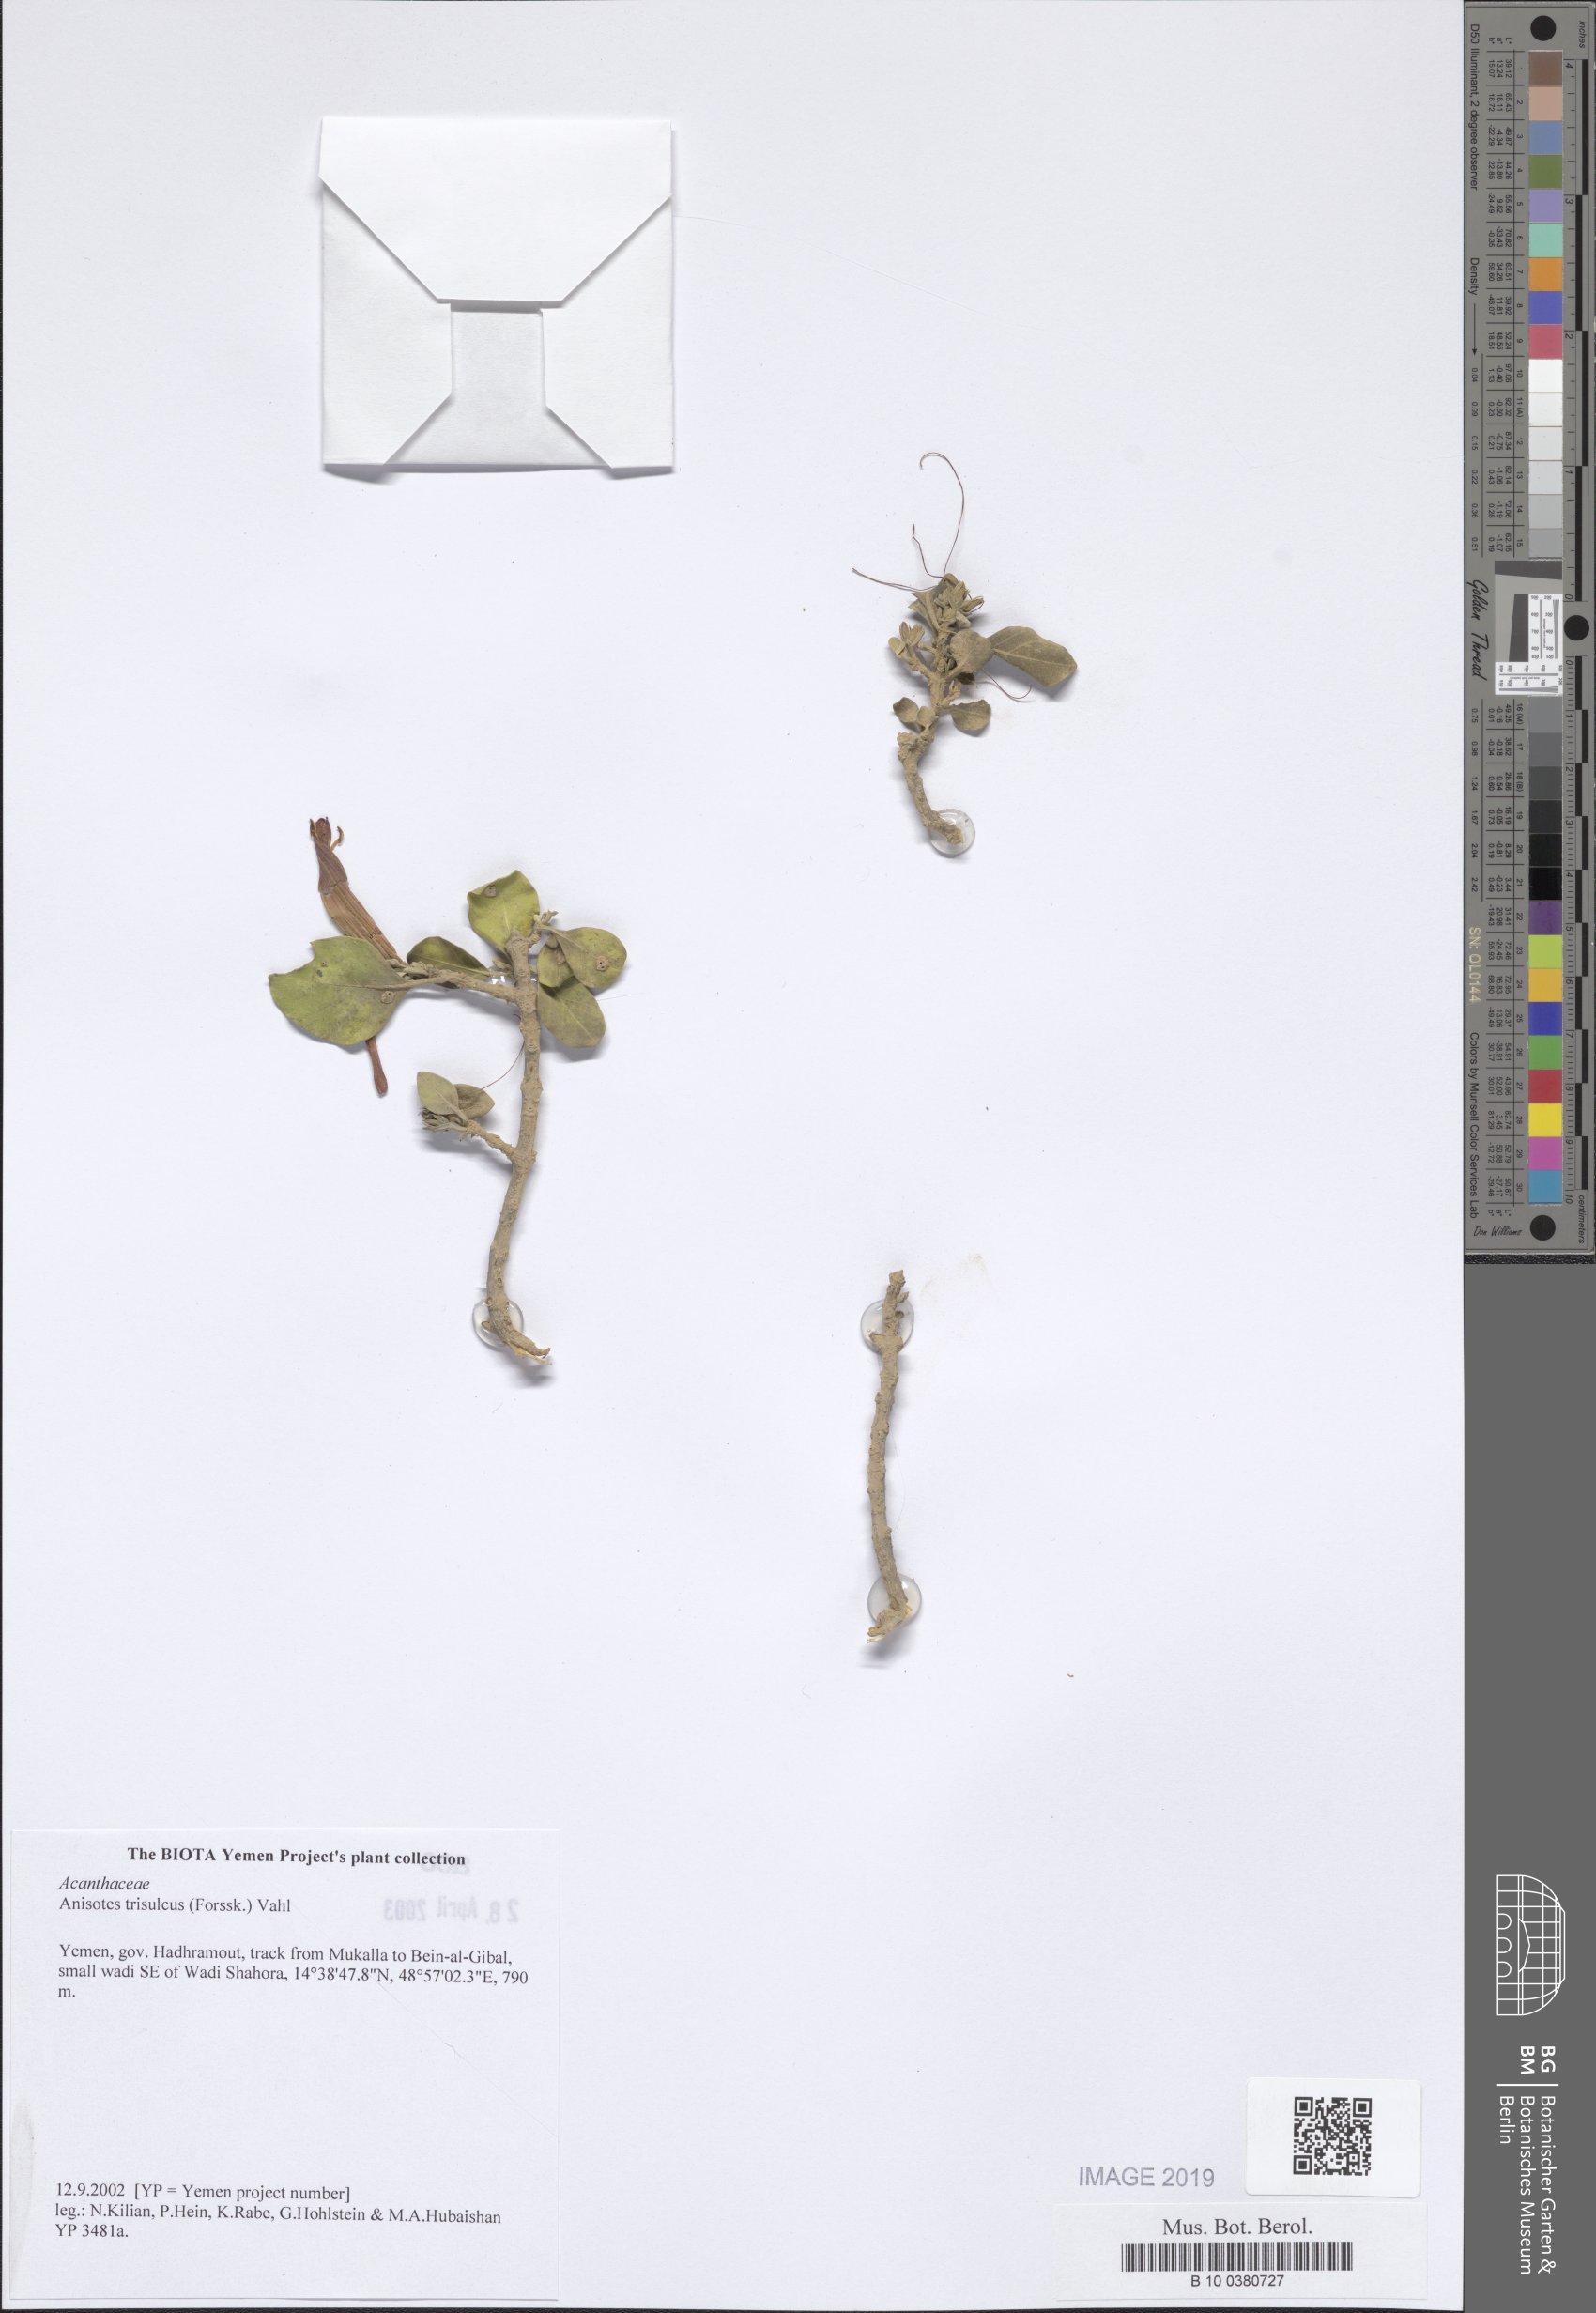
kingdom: Plantae
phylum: Tracheophyta
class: Magnoliopsida
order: Lamiales
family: Acanthaceae
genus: Anisotes
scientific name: Anisotes trisulcus
